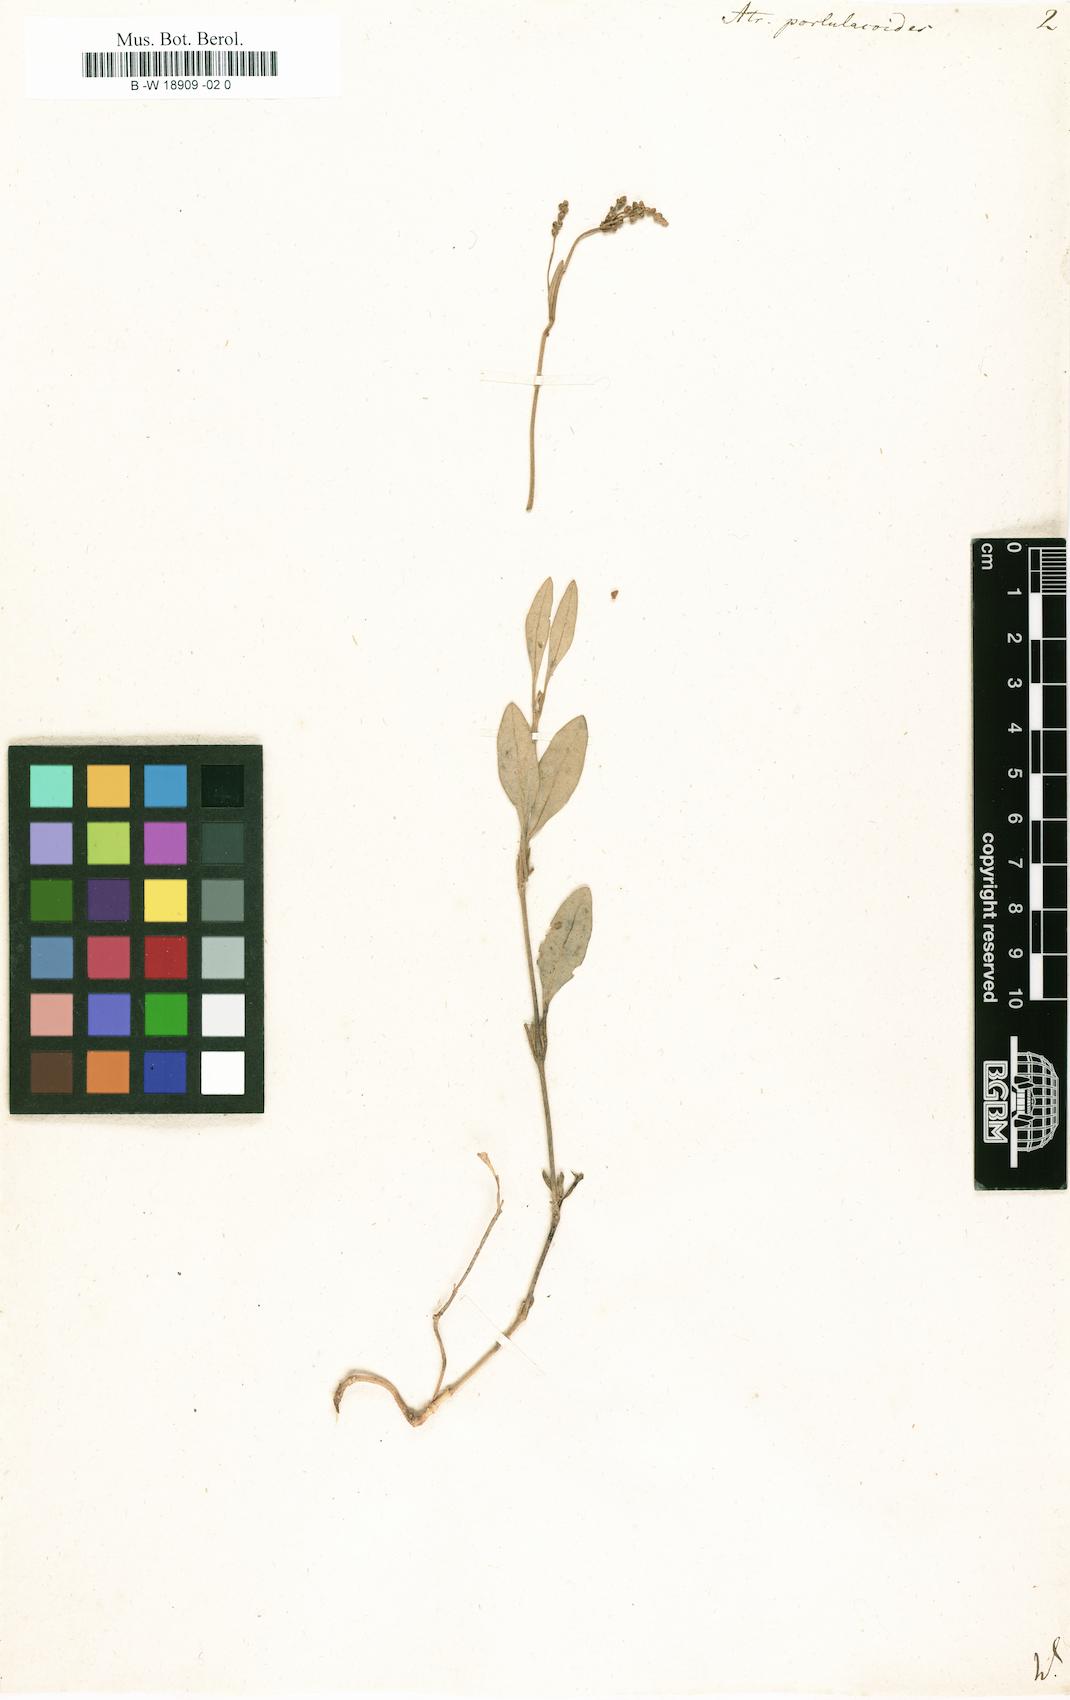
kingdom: Plantae
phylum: Tracheophyta
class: Magnoliopsida
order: Caryophyllales
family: Amaranthaceae
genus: Halimione
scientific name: Halimione portulacoides
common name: Sea-purslane
